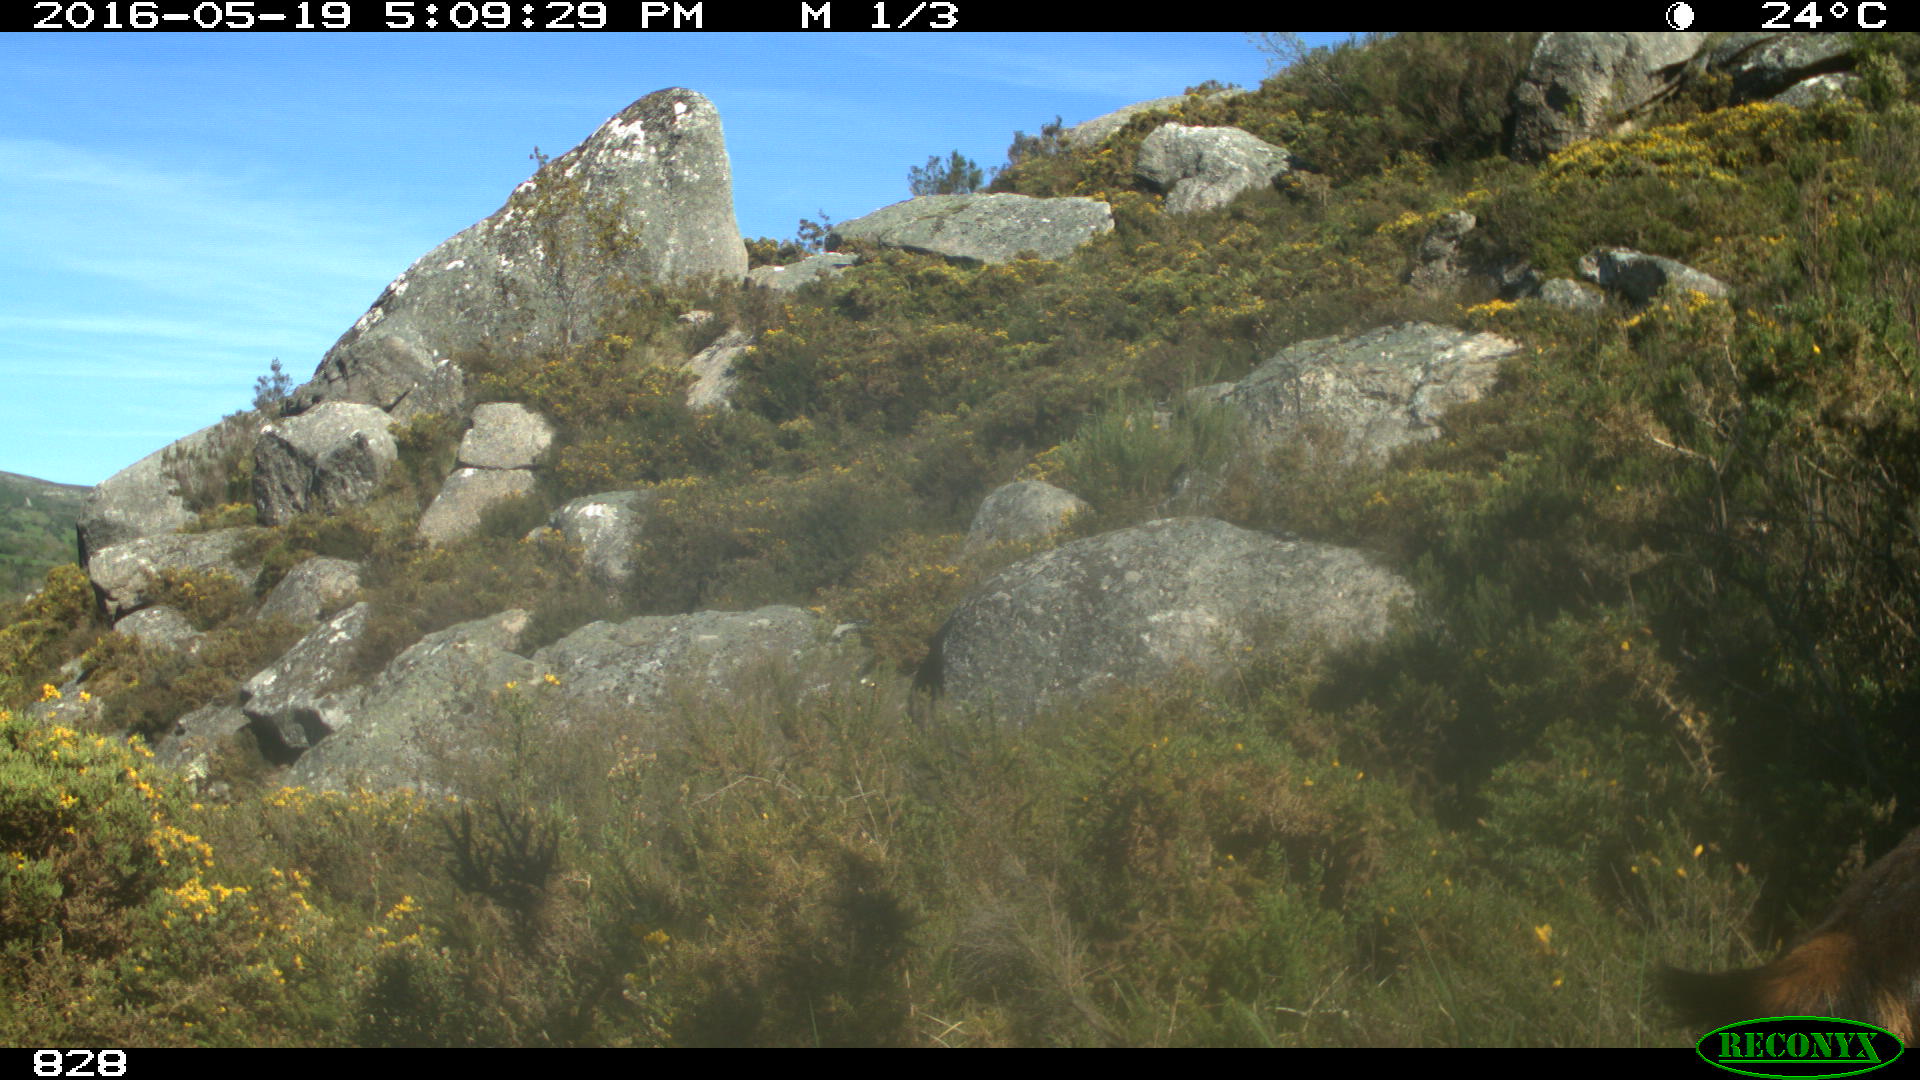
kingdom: Animalia
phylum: Chordata
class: Mammalia
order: Artiodactyla
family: Bovidae
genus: Capra
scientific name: Capra hircus
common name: Domestic goat
